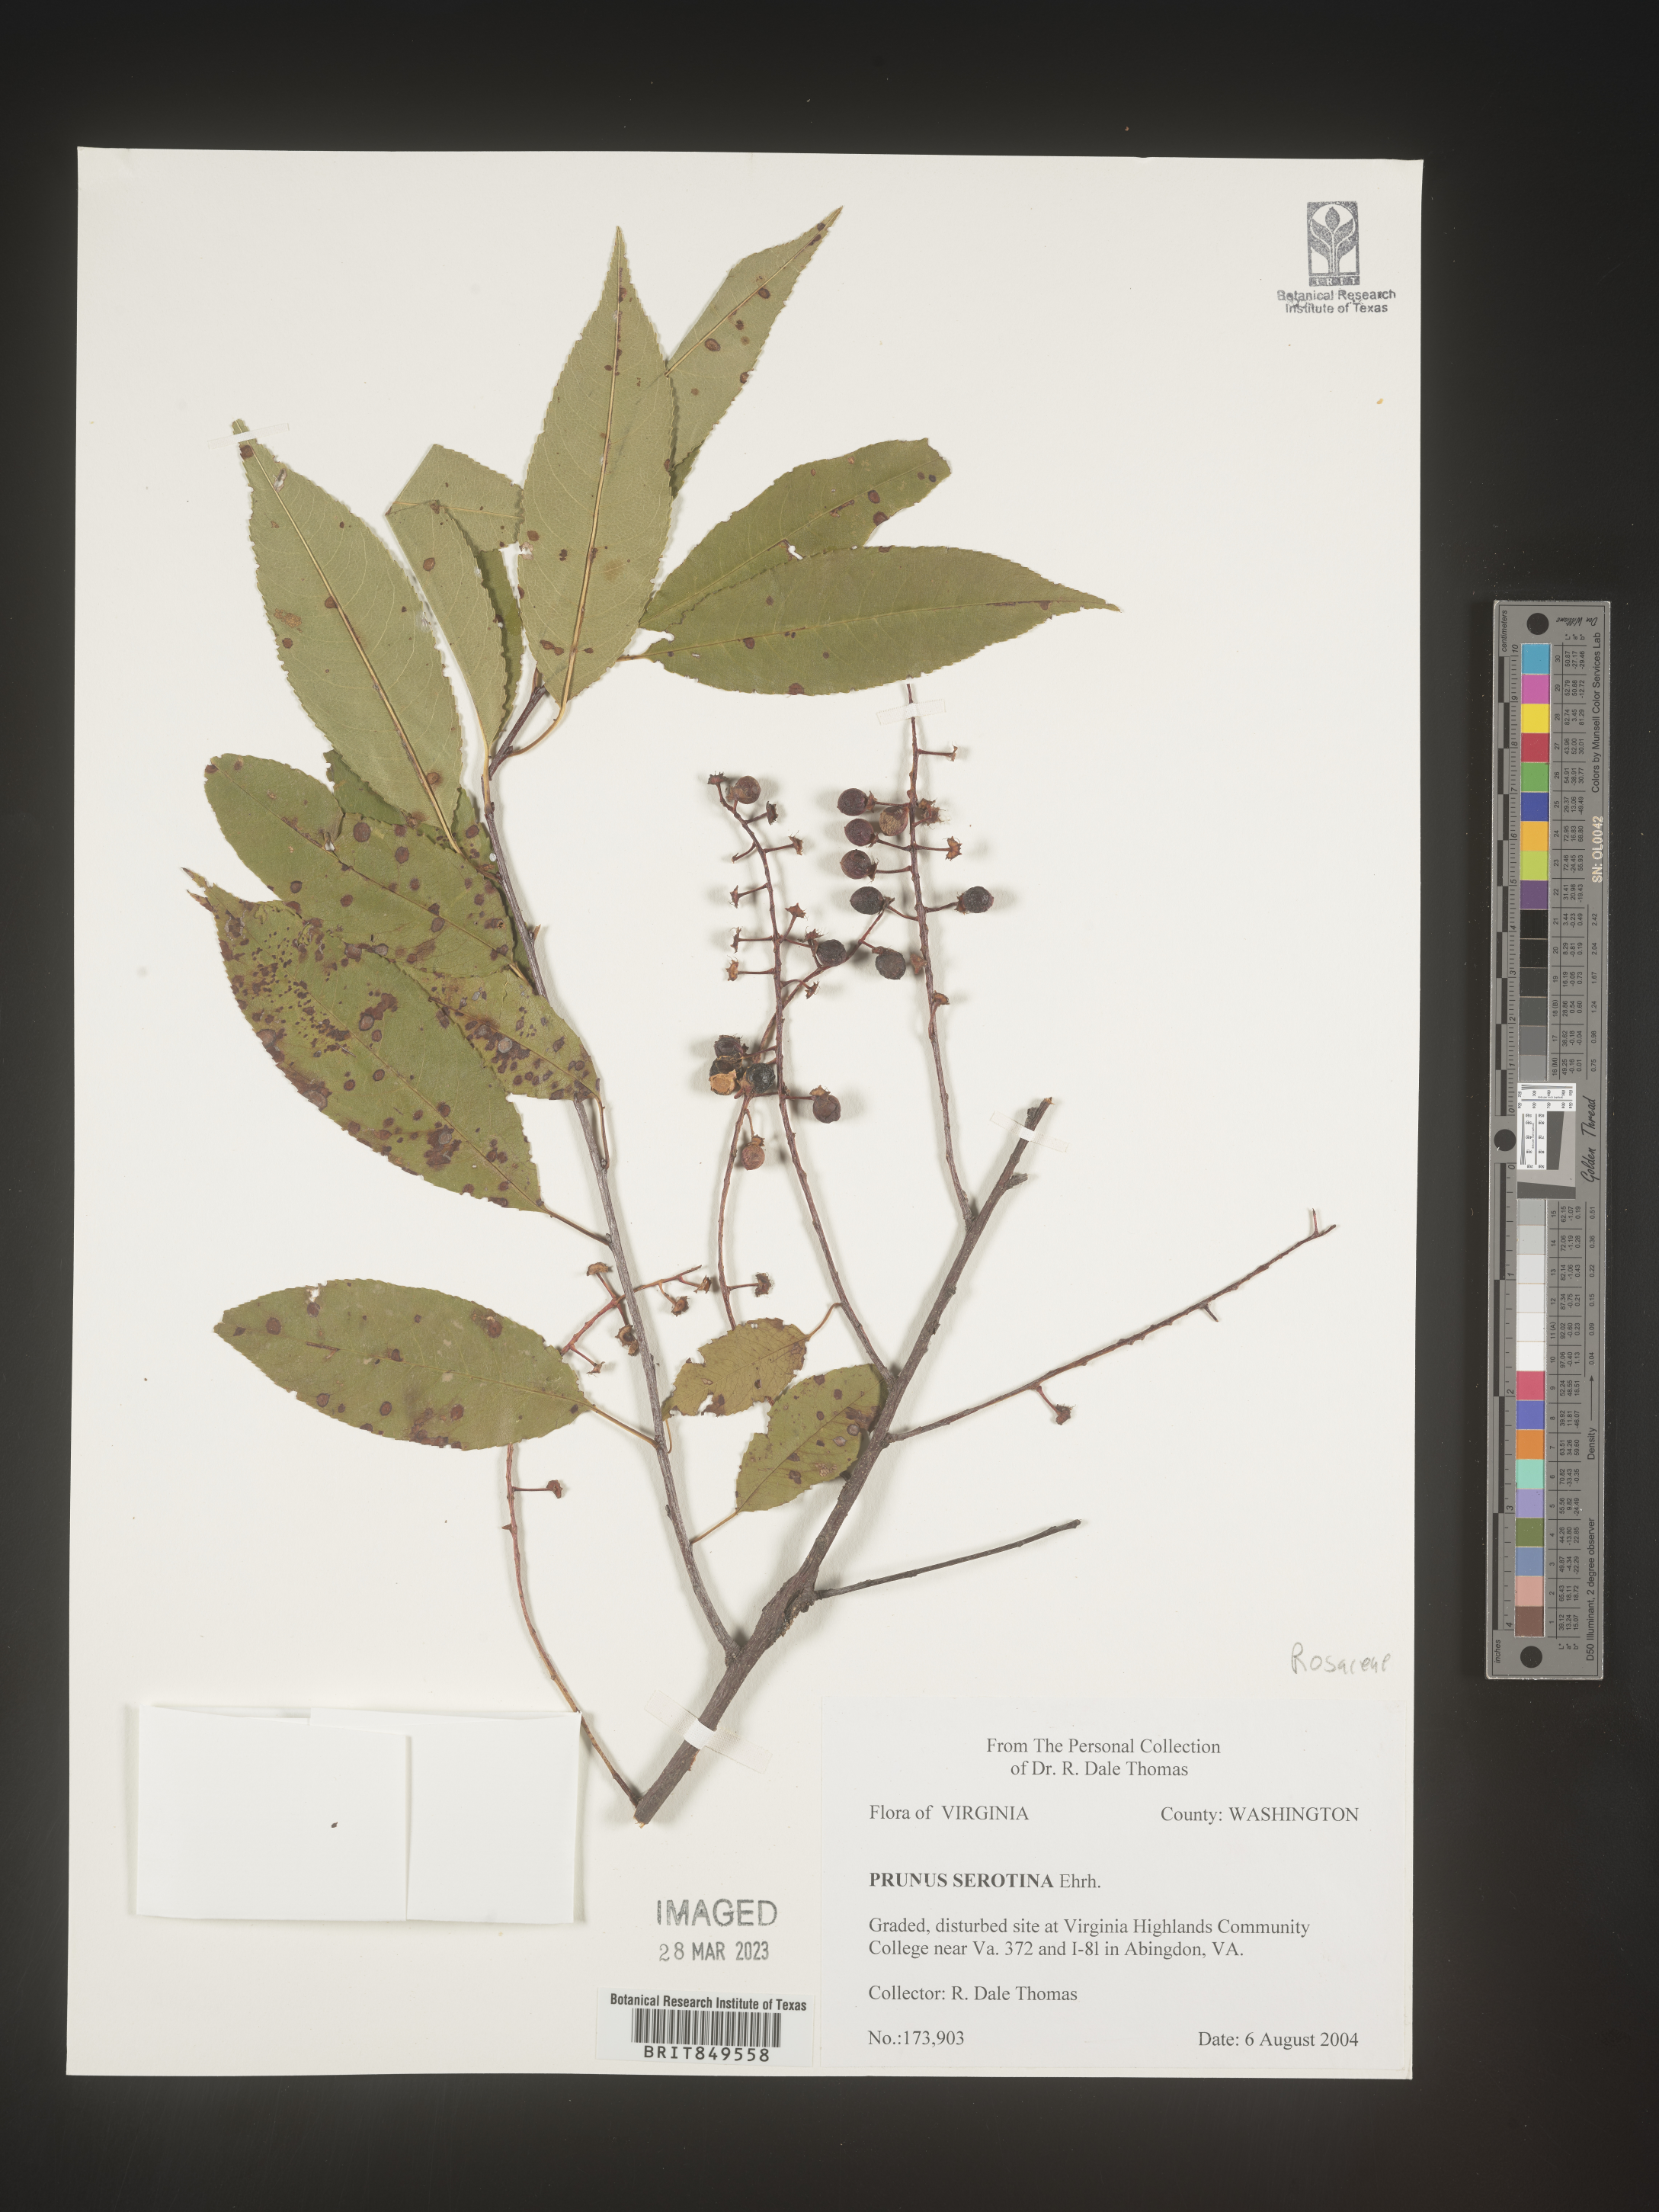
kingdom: Plantae
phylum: Tracheophyta
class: Magnoliopsida
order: Rosales
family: Rosaceae
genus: Prunus
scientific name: Prunus serotina
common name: Black cherry
